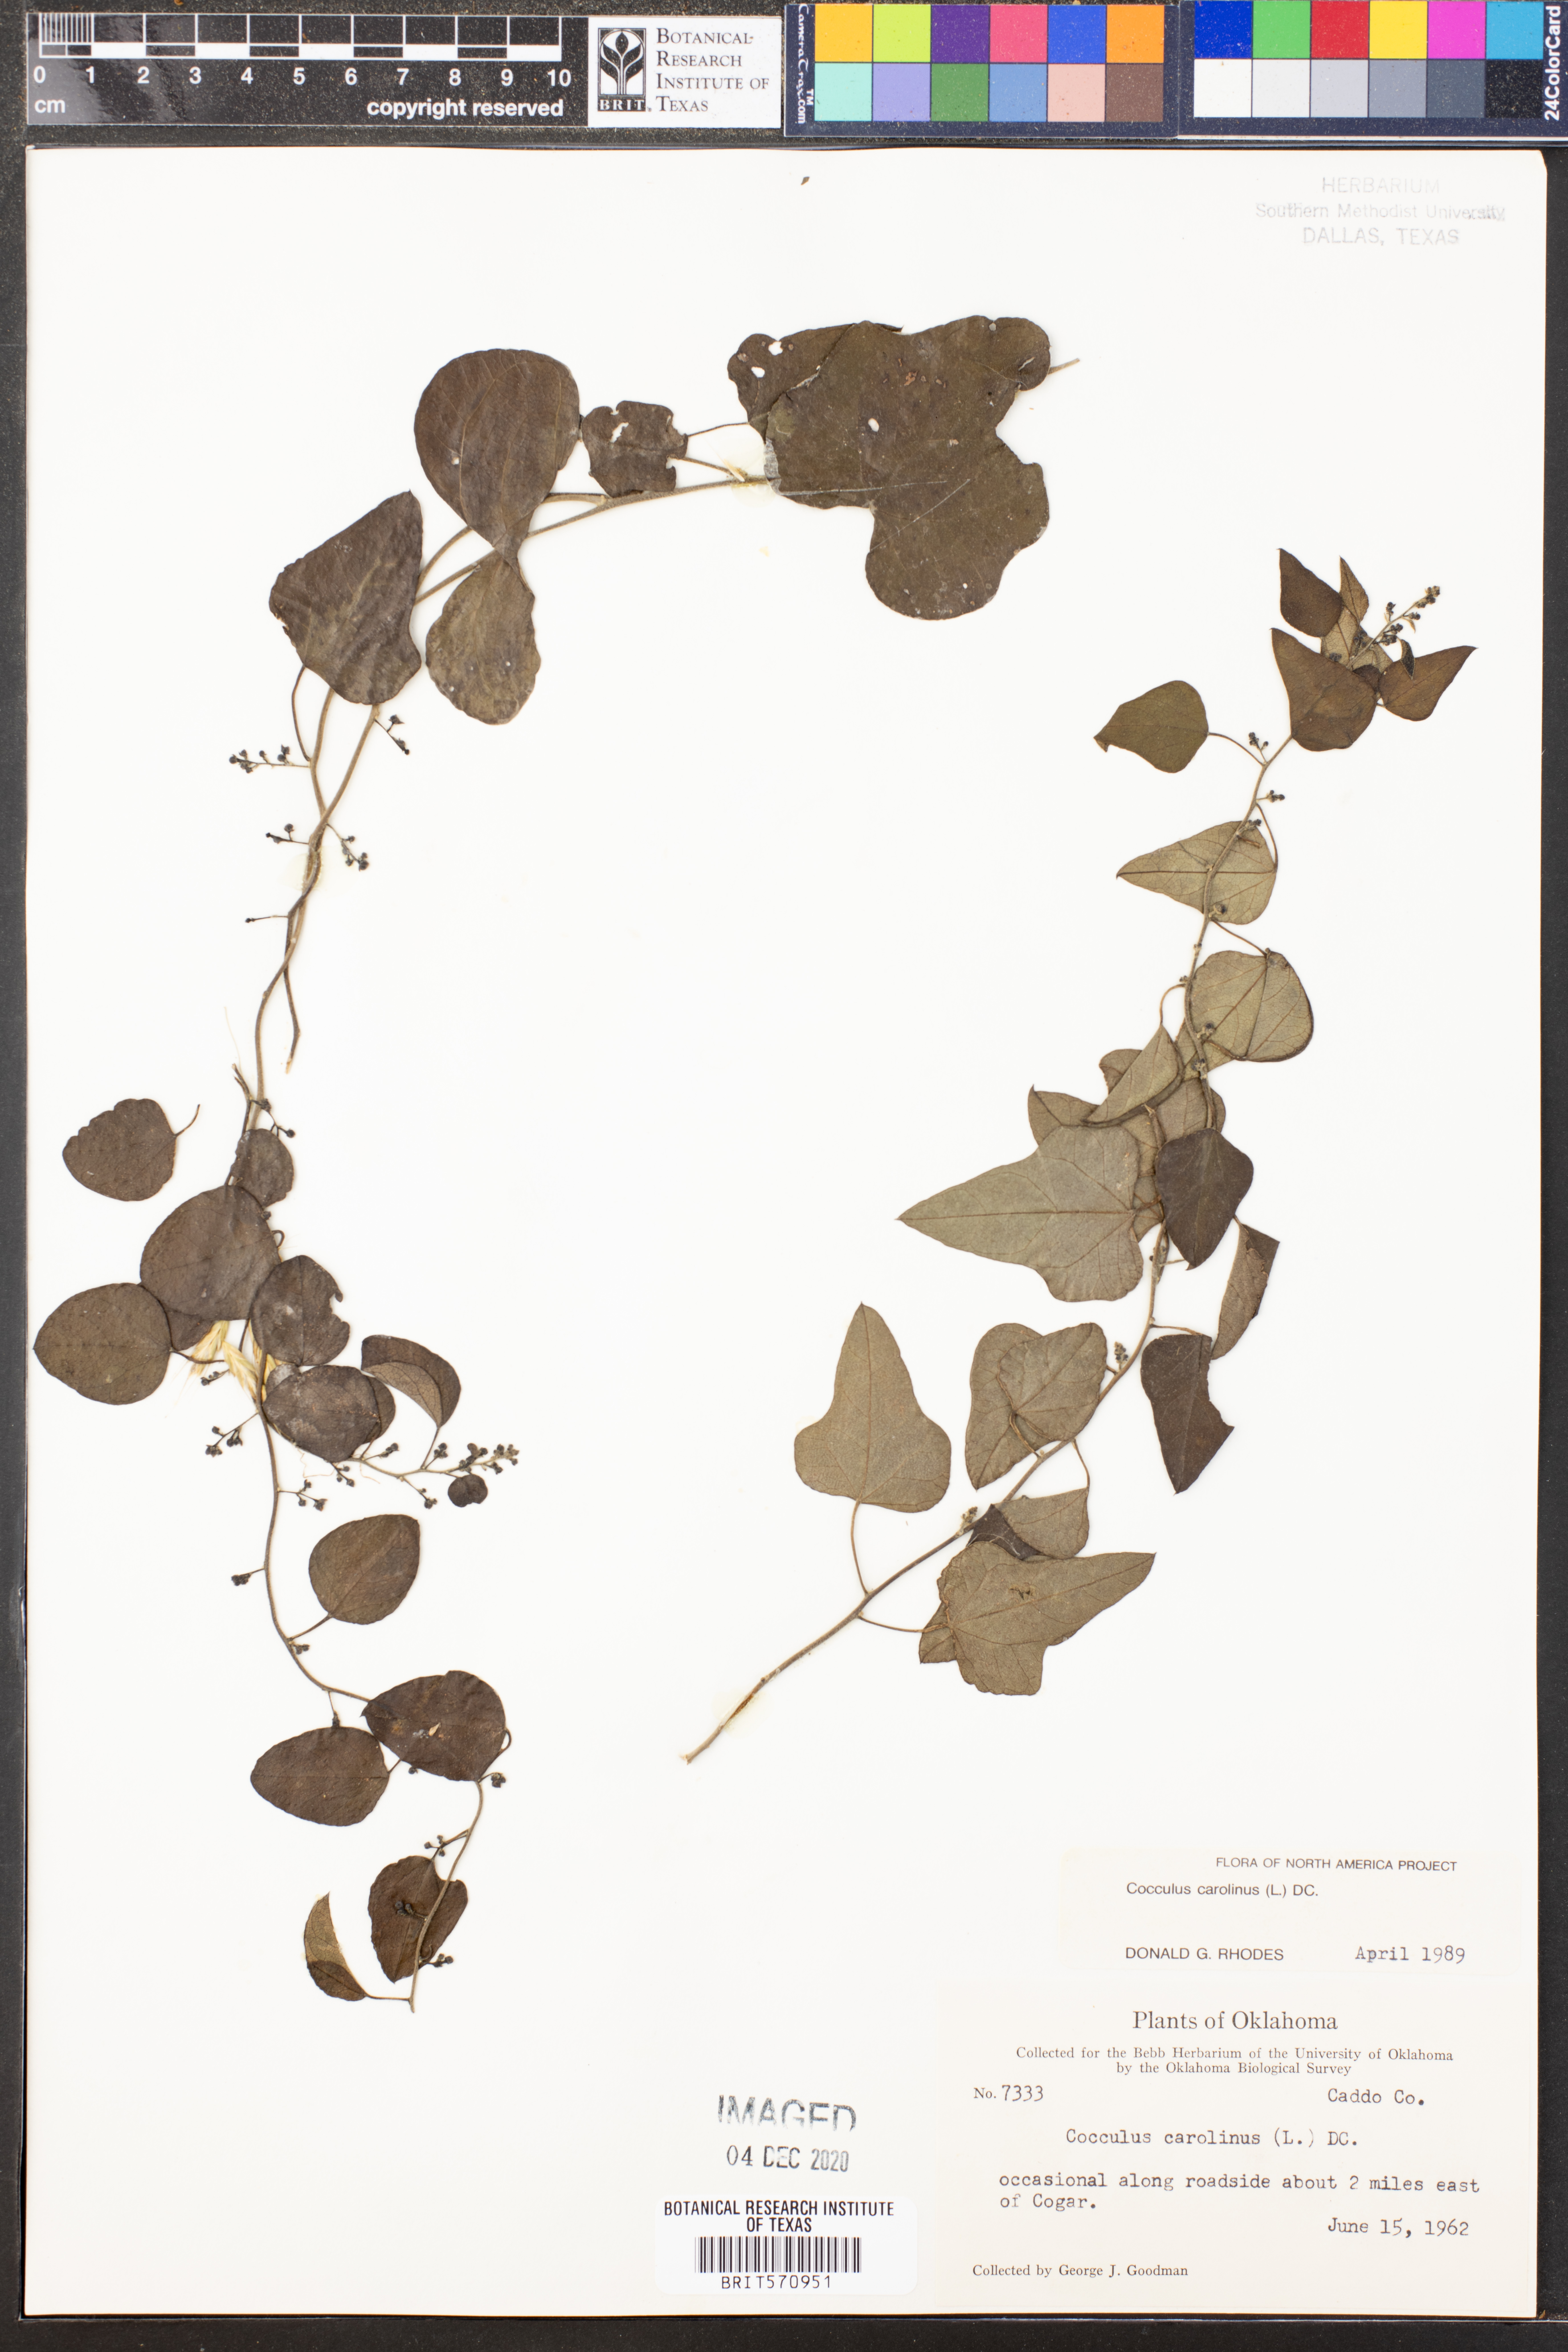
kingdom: Plantae
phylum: Tracheophyta
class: Magnoliopsida
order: Ranunculales
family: Menispermaceae
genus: Cocculus
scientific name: Cocculus carolinus
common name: Carolina moonseed
